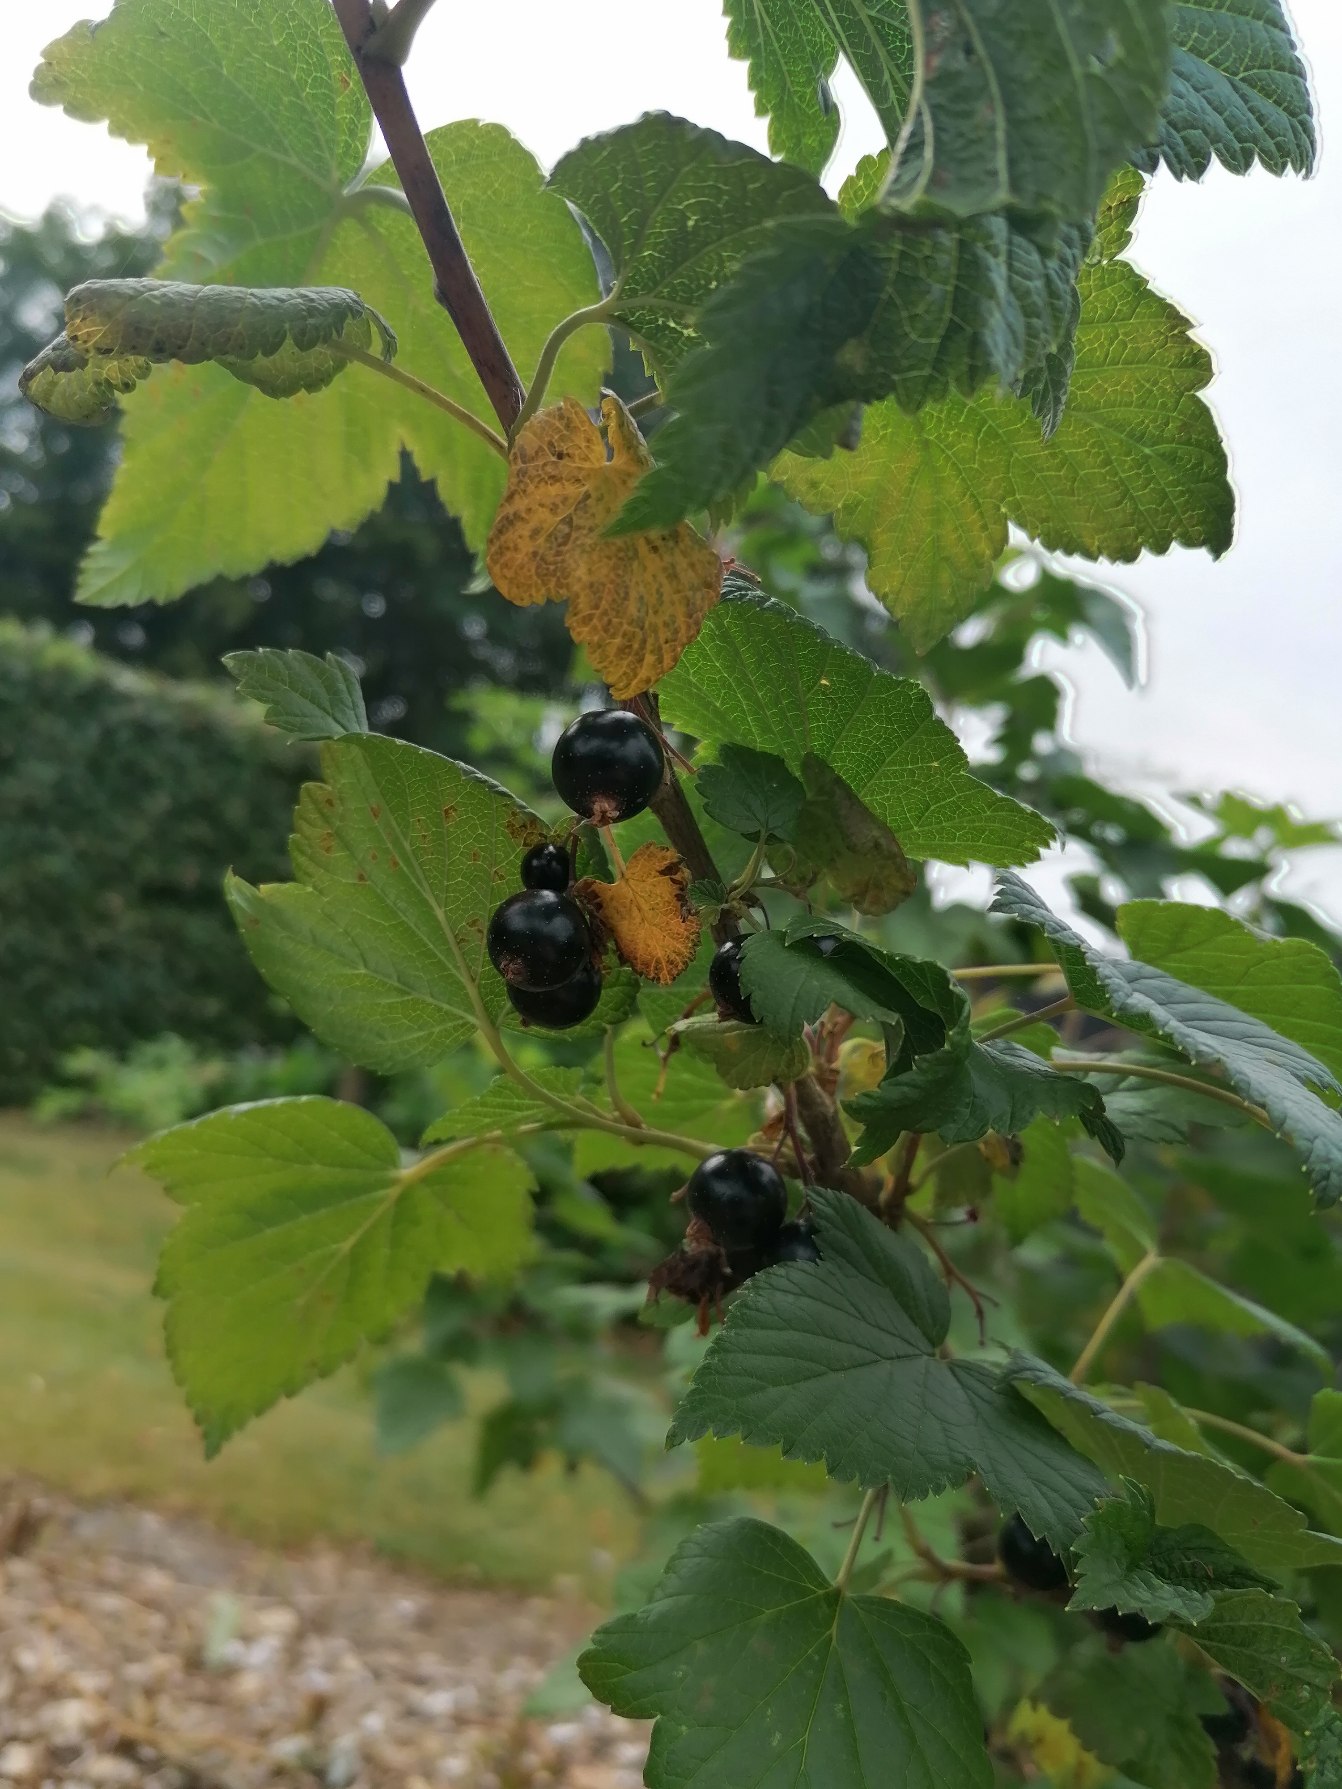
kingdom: Plantae
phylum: Tracheophyta
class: Magnoliopsida
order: Saxifragales
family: Grossulariaceae
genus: Ribes
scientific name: Ribes nigrum
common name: Solbær
